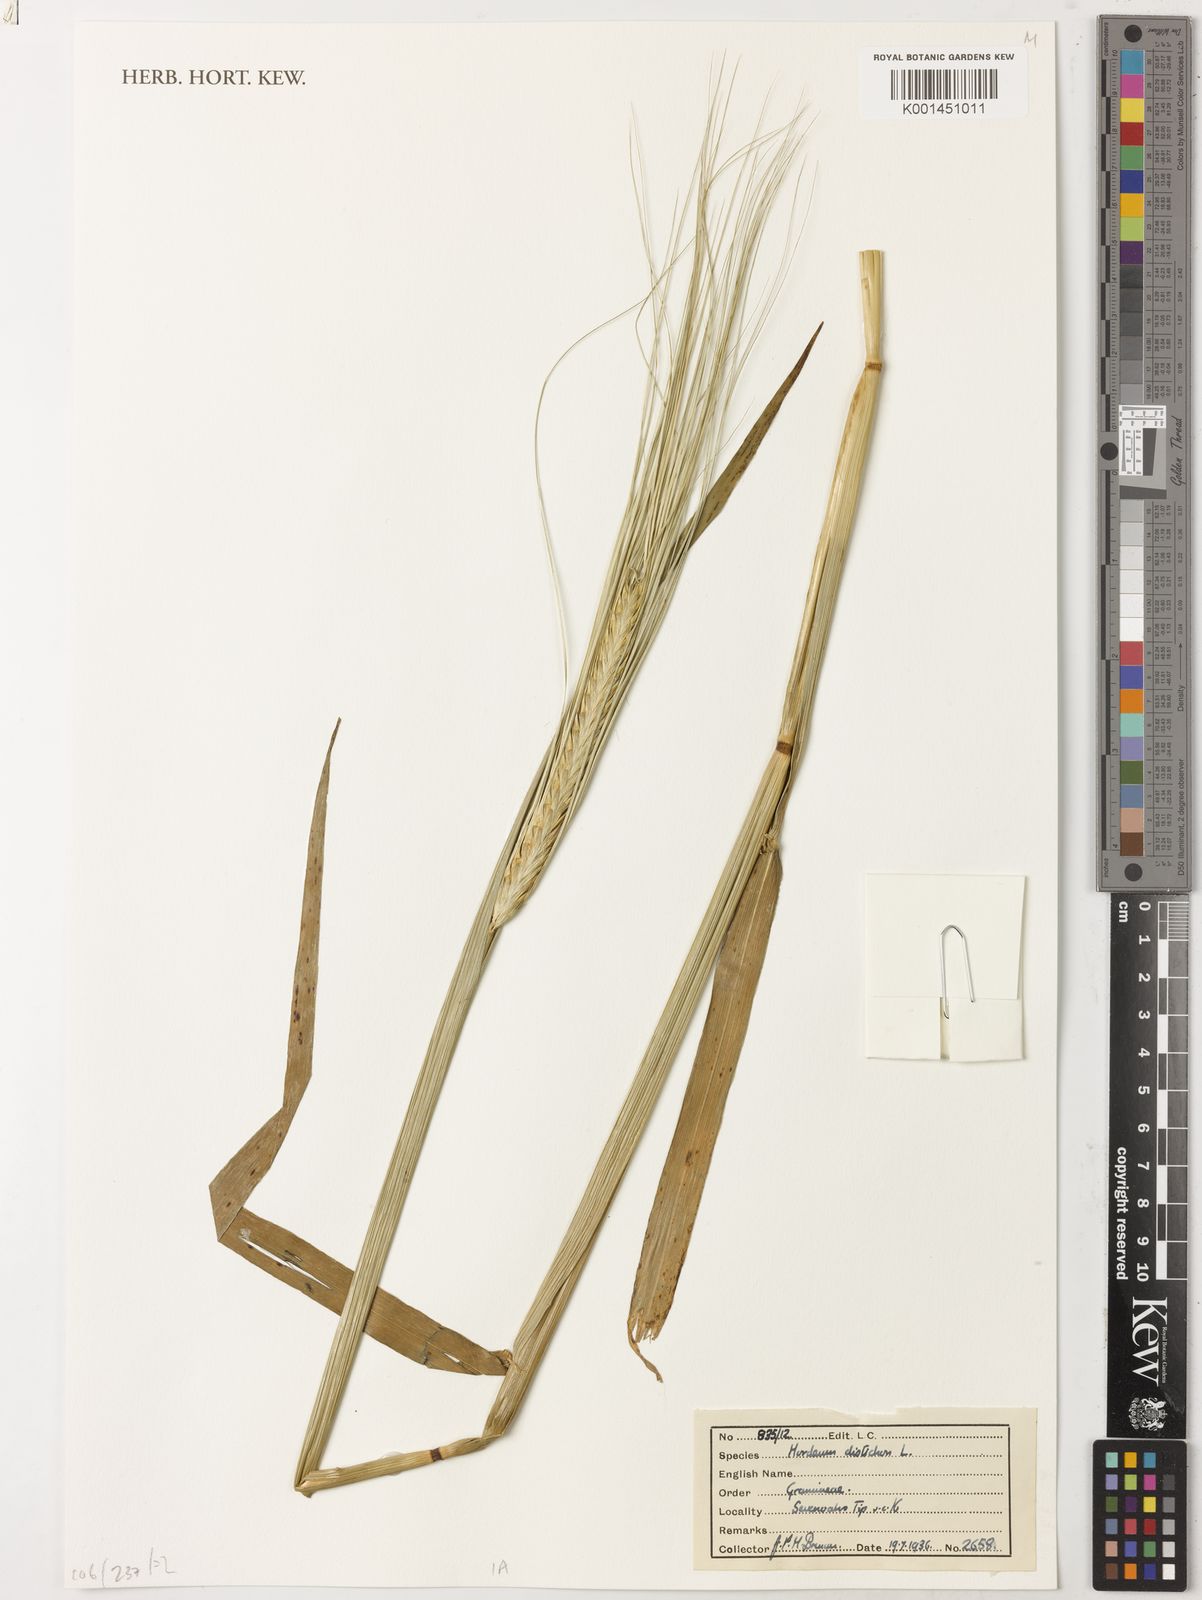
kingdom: Plantae
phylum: Tracheophyta
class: Liliopsida
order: Poales
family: Poaceae
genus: Hordeum
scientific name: Hordeum vulgare
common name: Common barley
